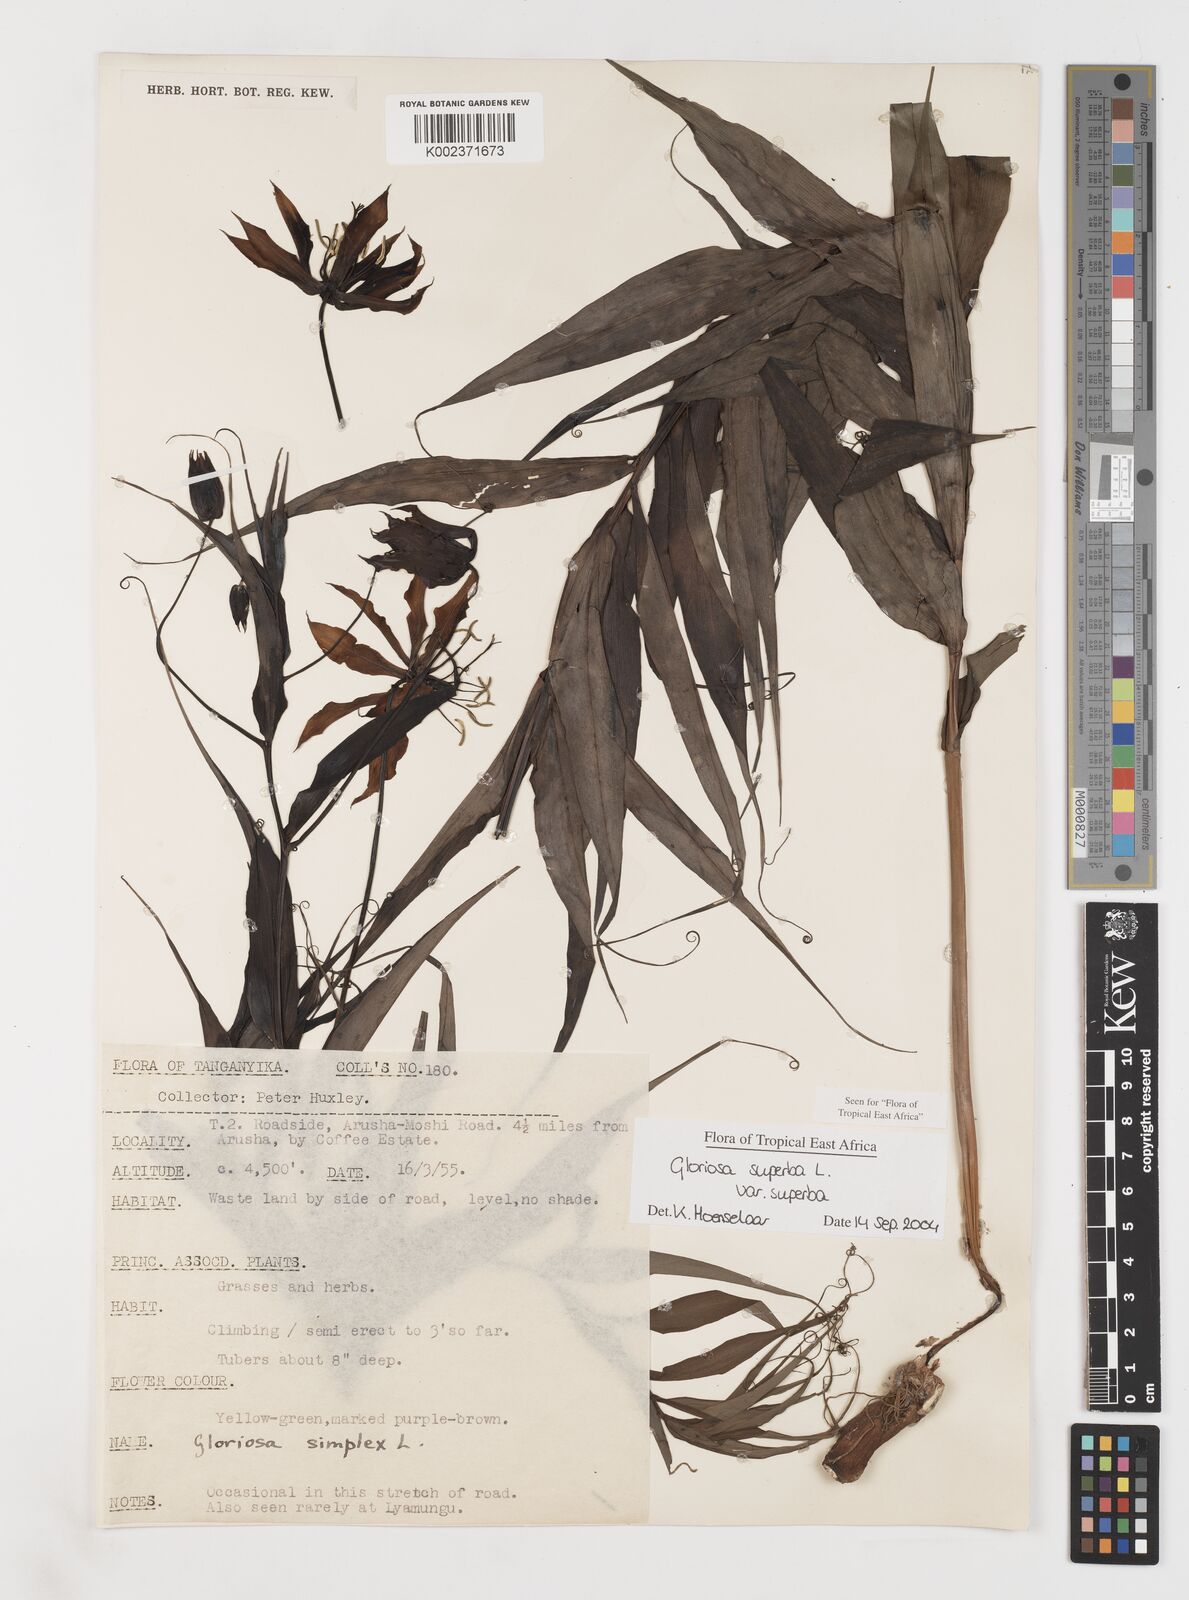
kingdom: Plantae
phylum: Tracheophyta
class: Liliopsida
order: Liliales
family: Colchicaceae
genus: Gloriosa
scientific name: Gloriosa simplex
